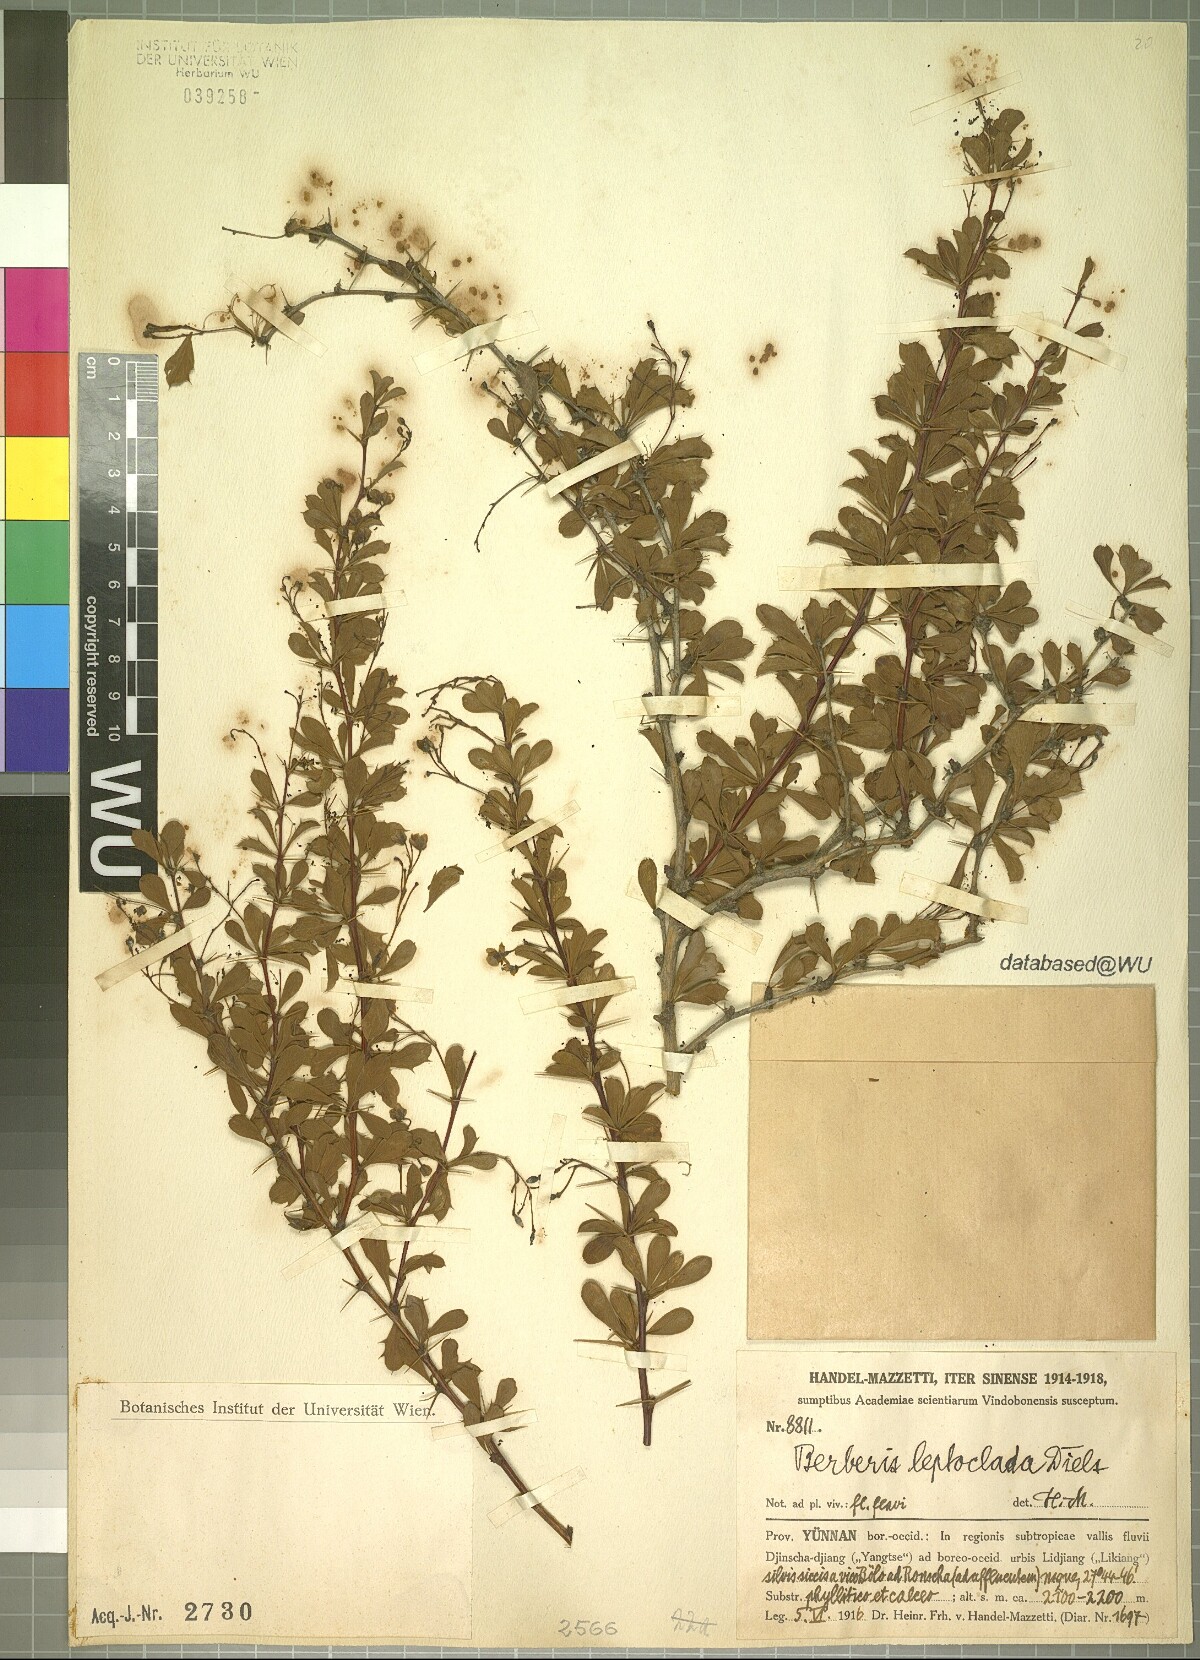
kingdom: Plantae
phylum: Tracheophyta
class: Magnoliopsida
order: Ranunculales
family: Berberidaceae
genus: Berberis
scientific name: Berberis leptoclada
